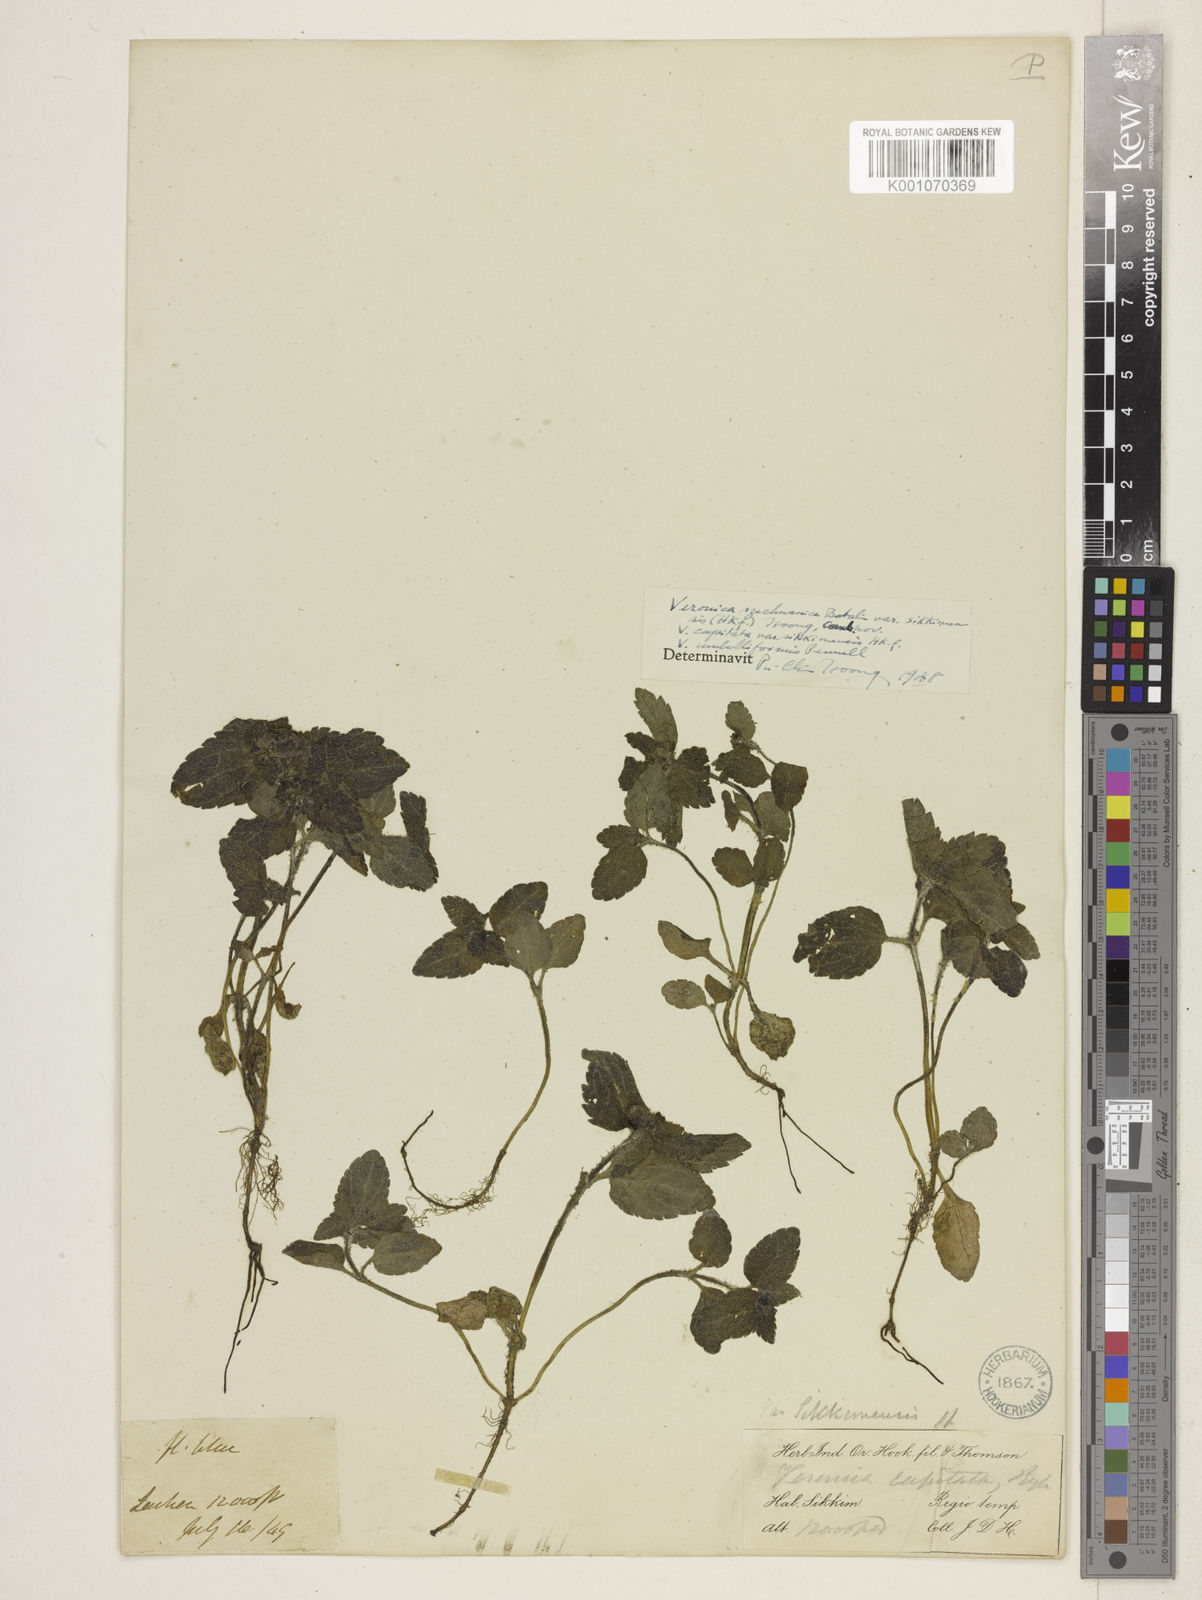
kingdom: Plantae
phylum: Tracheophyta
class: Magnoliopsida
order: Lamiales
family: Plantaginaceae
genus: Veronica
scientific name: Veronica szechuanica
